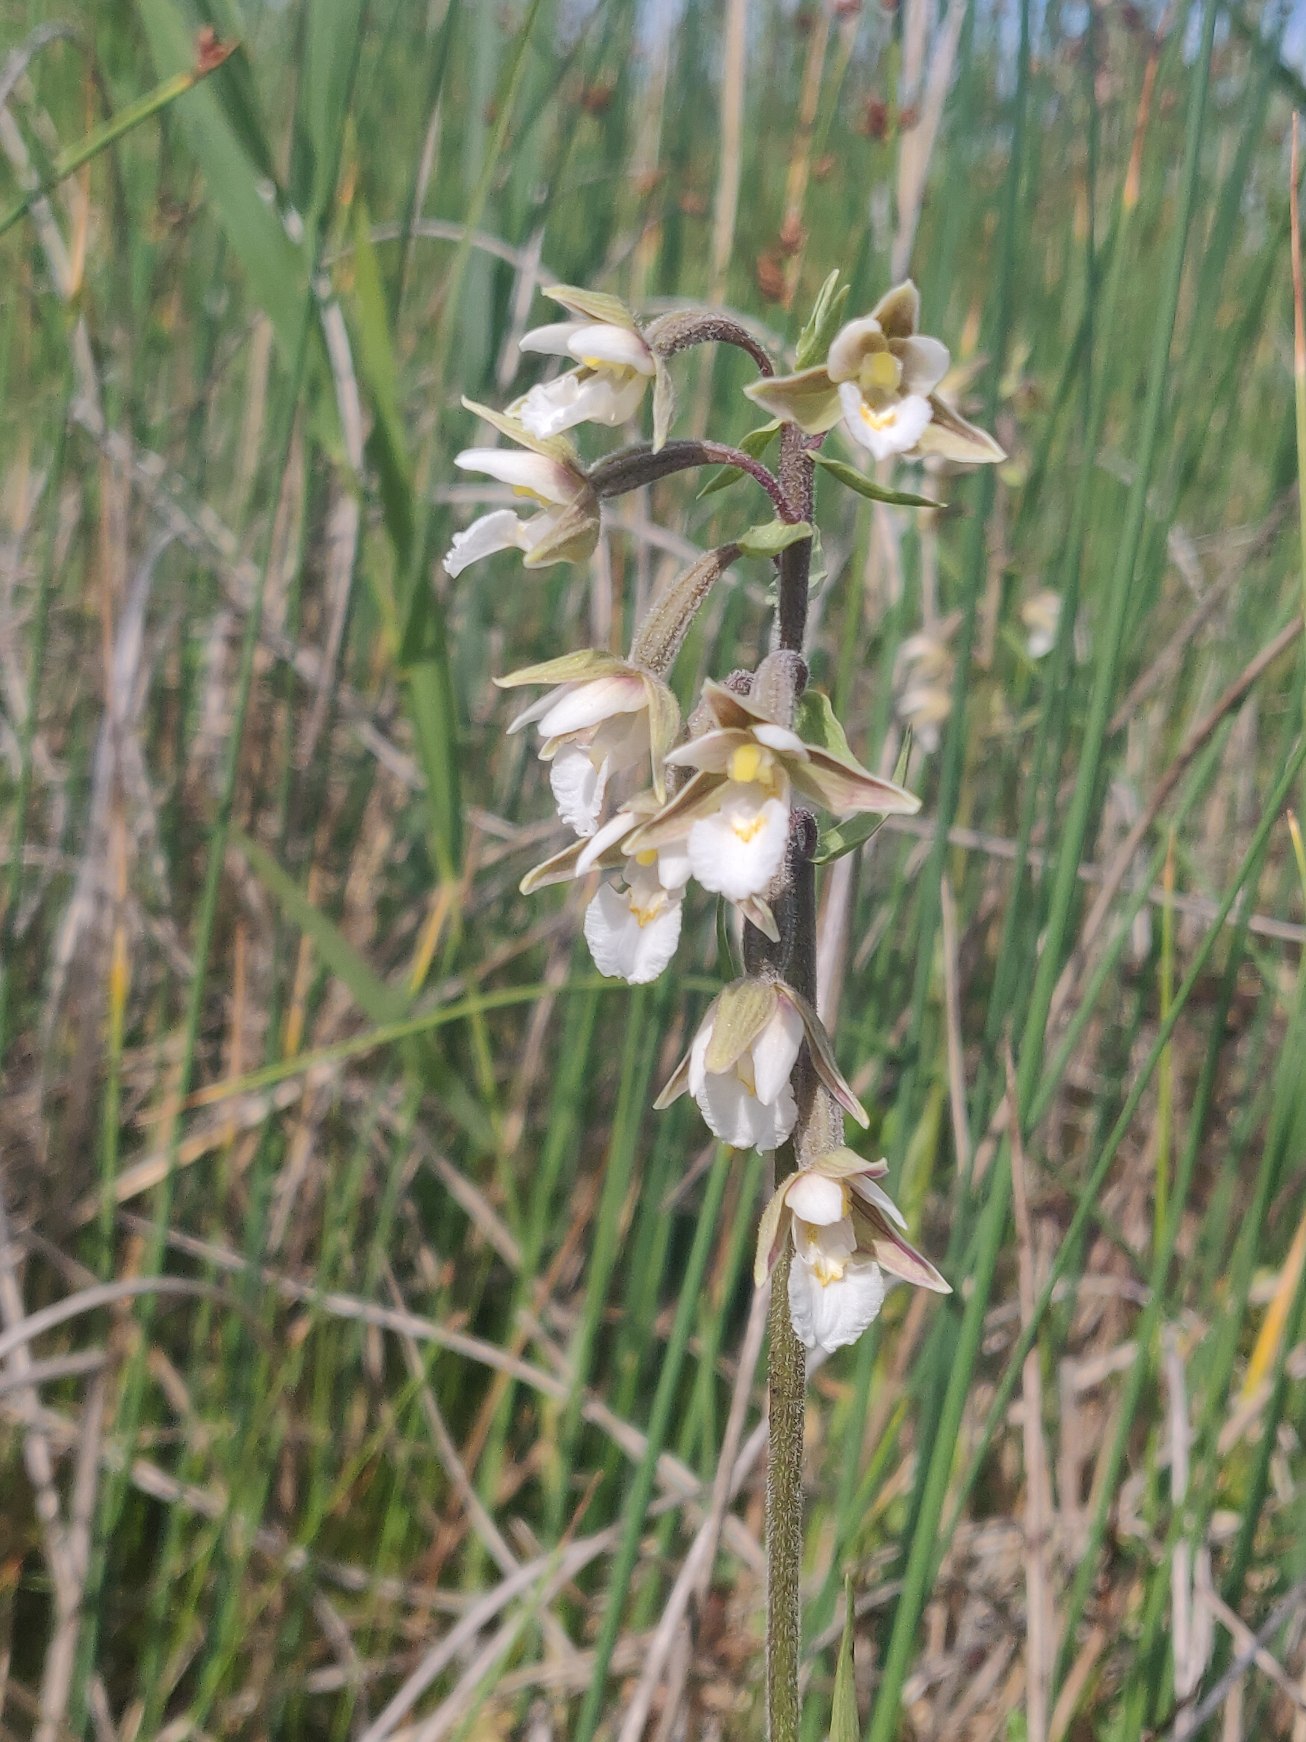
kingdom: Plantae
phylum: Tracheophyta
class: Liliopsida
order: Asparagales
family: Orchidaceae
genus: Epipactis
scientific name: Epipactis palustris
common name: Sump-hullæbe
